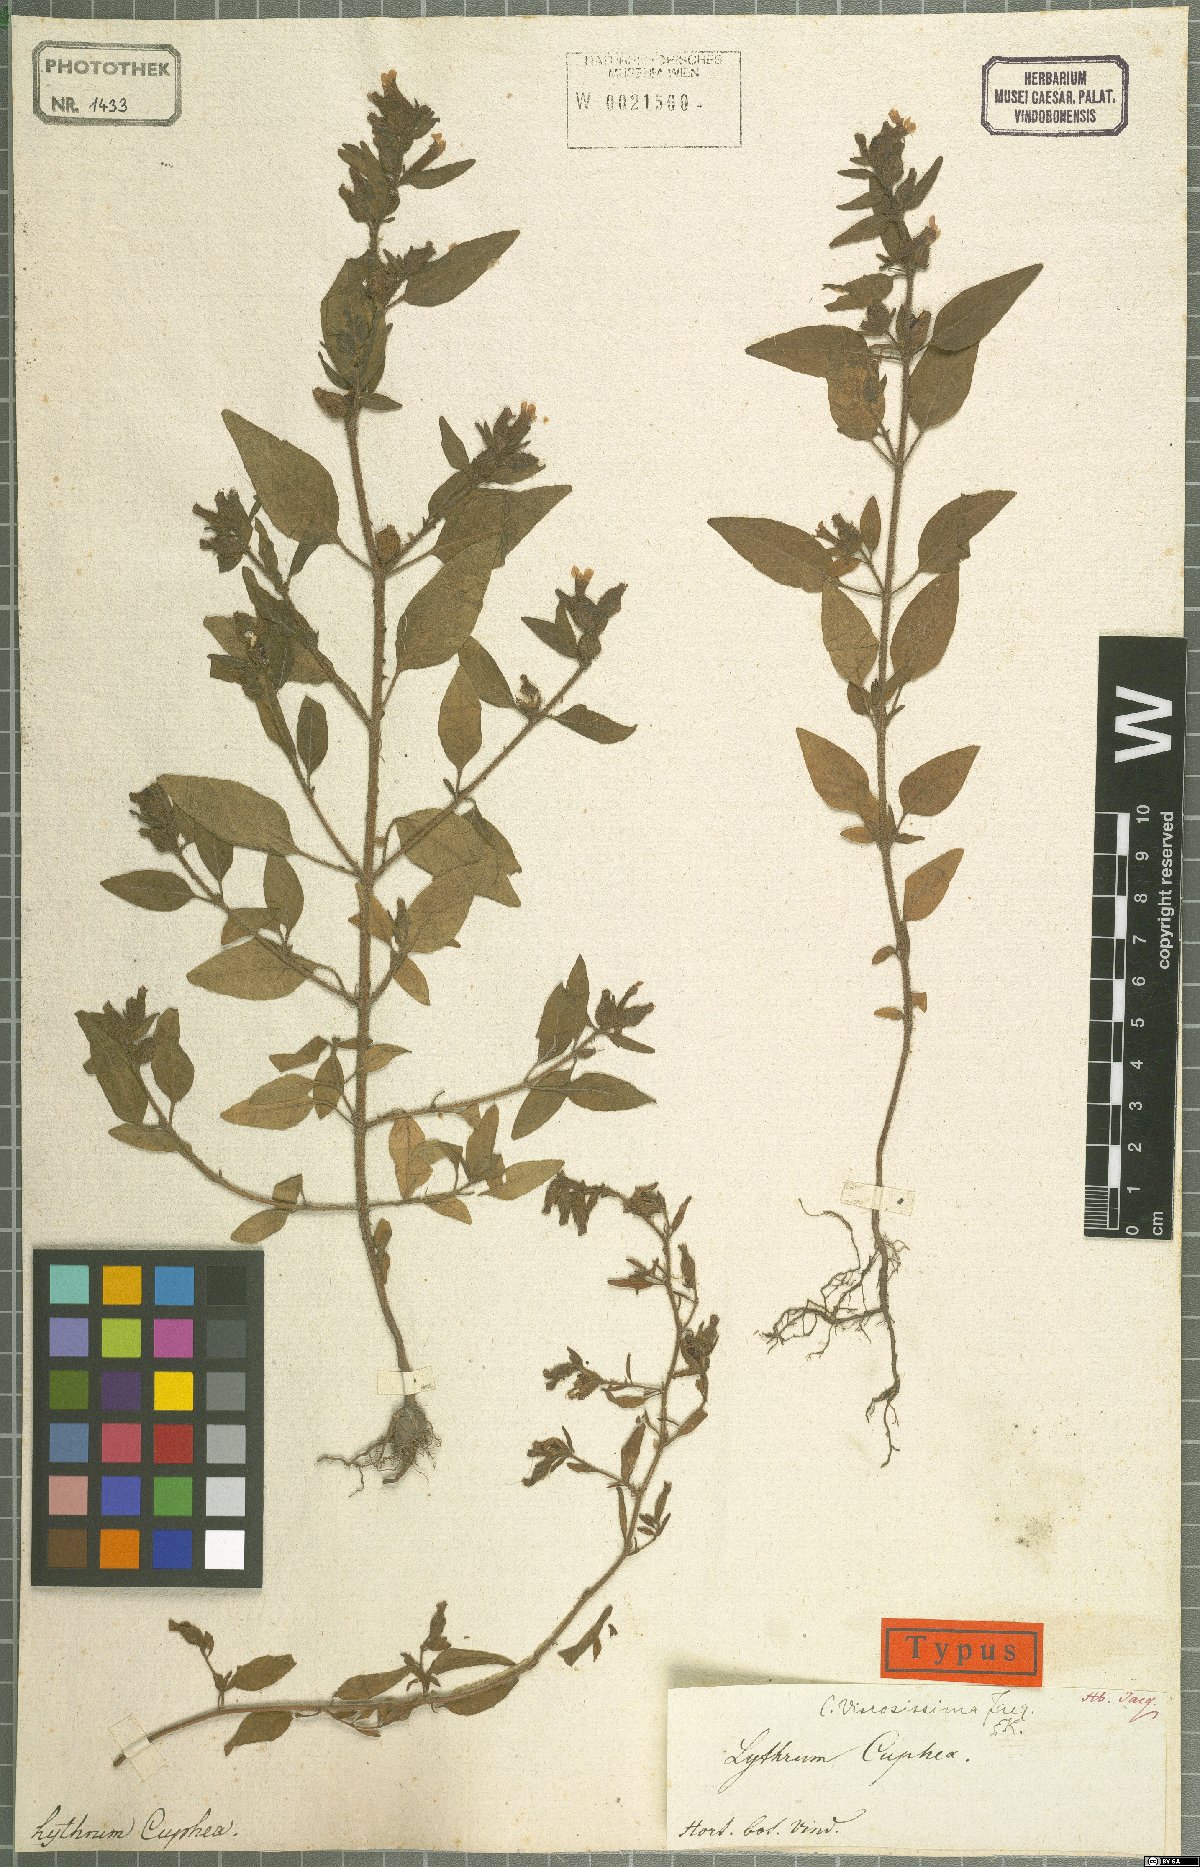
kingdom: Plantae
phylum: Tracheophyta
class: Magnoliopsida
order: Myrtales
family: Lythraceae
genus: Cuphea
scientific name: Cuphea viscosissima
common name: Clammy cuphea
